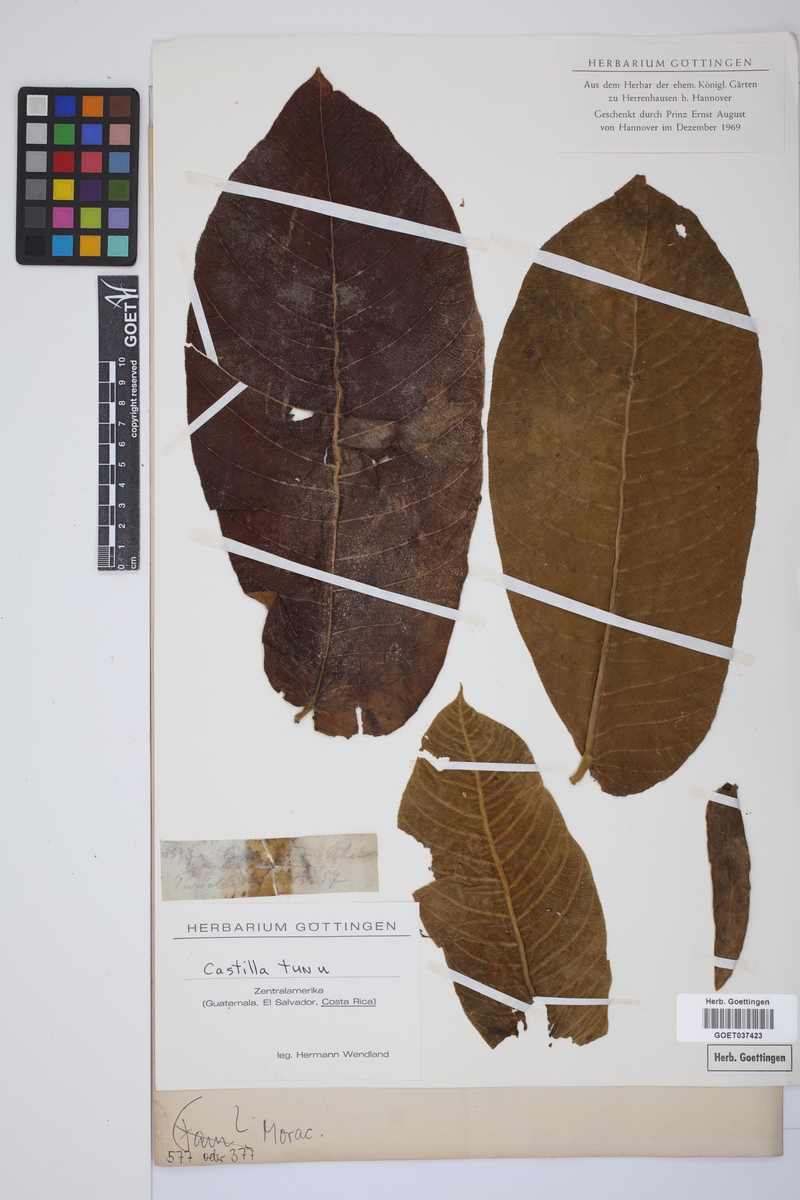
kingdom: Plantae
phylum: Tracheophyta
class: Magnoliopsida
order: Rosales
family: Moraceae
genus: Castilla
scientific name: Castilla tunu
